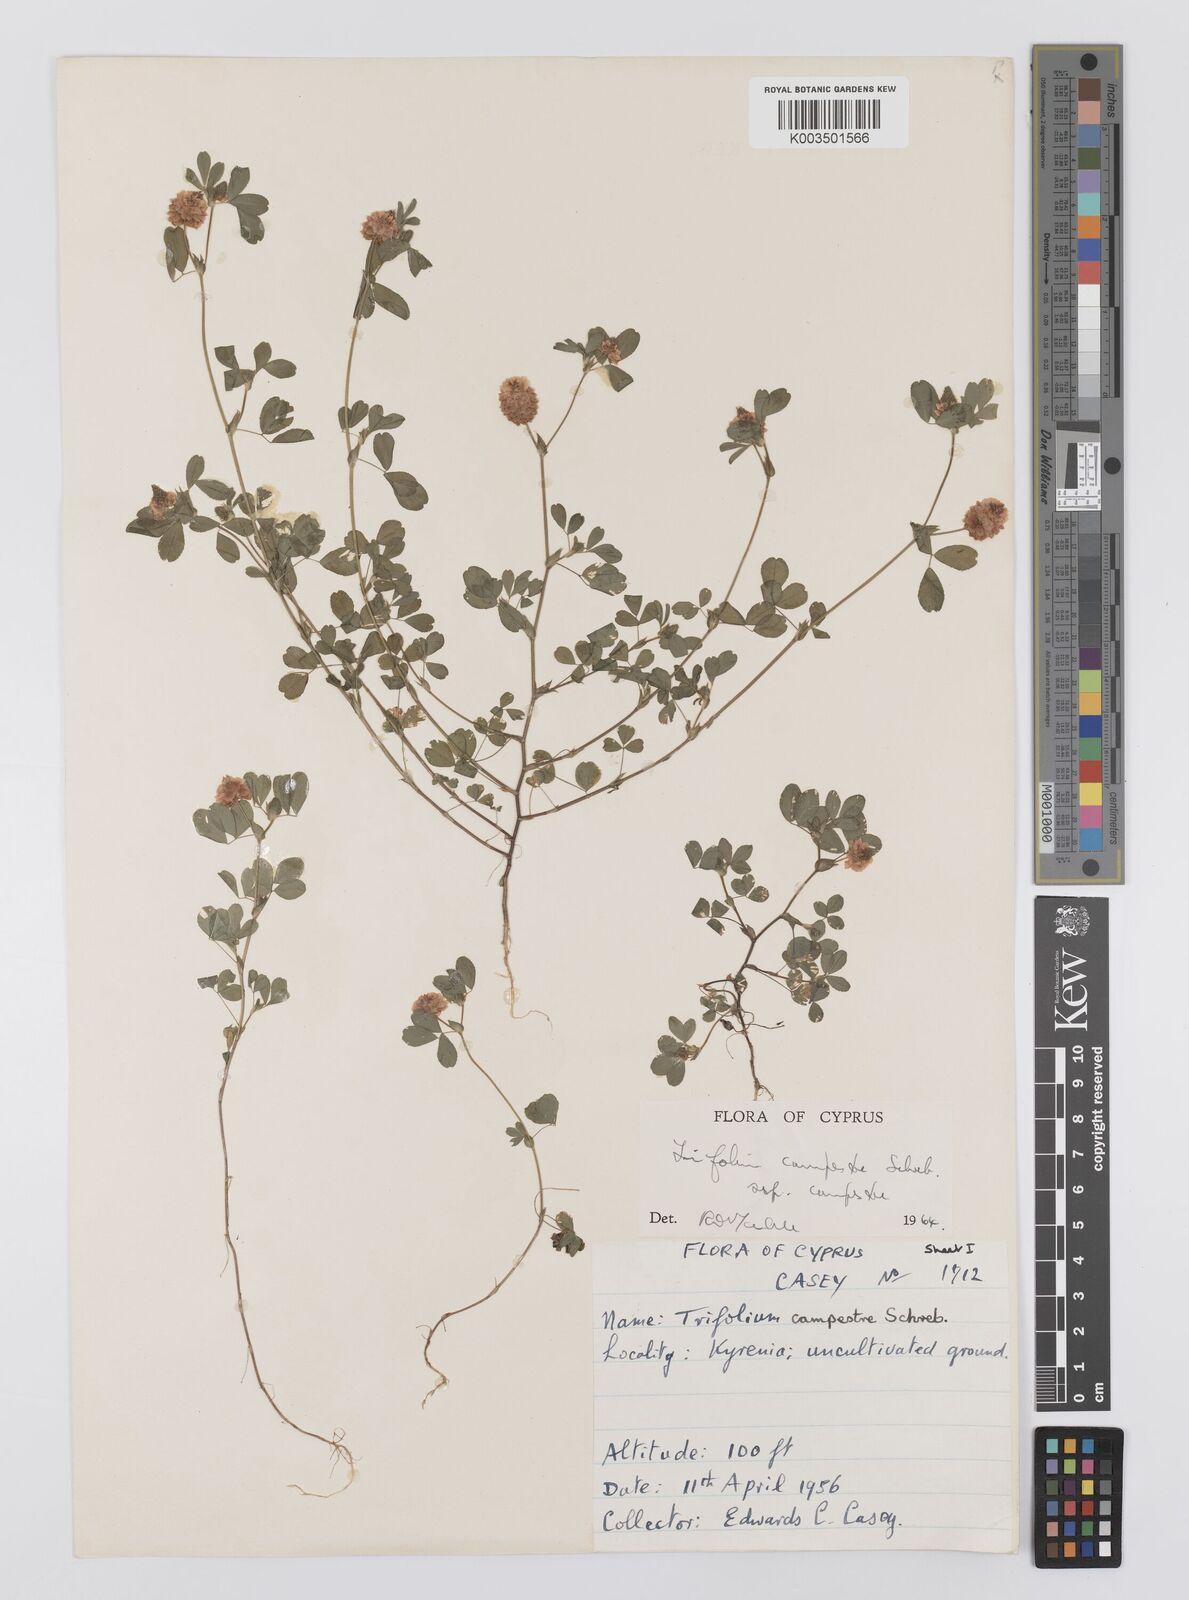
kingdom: Plantae
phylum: Tracheophyta
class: Magnoliopsida
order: Fabales
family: Fabaceae
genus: Trifolium
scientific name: Trifolium campestre
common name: Field clover
